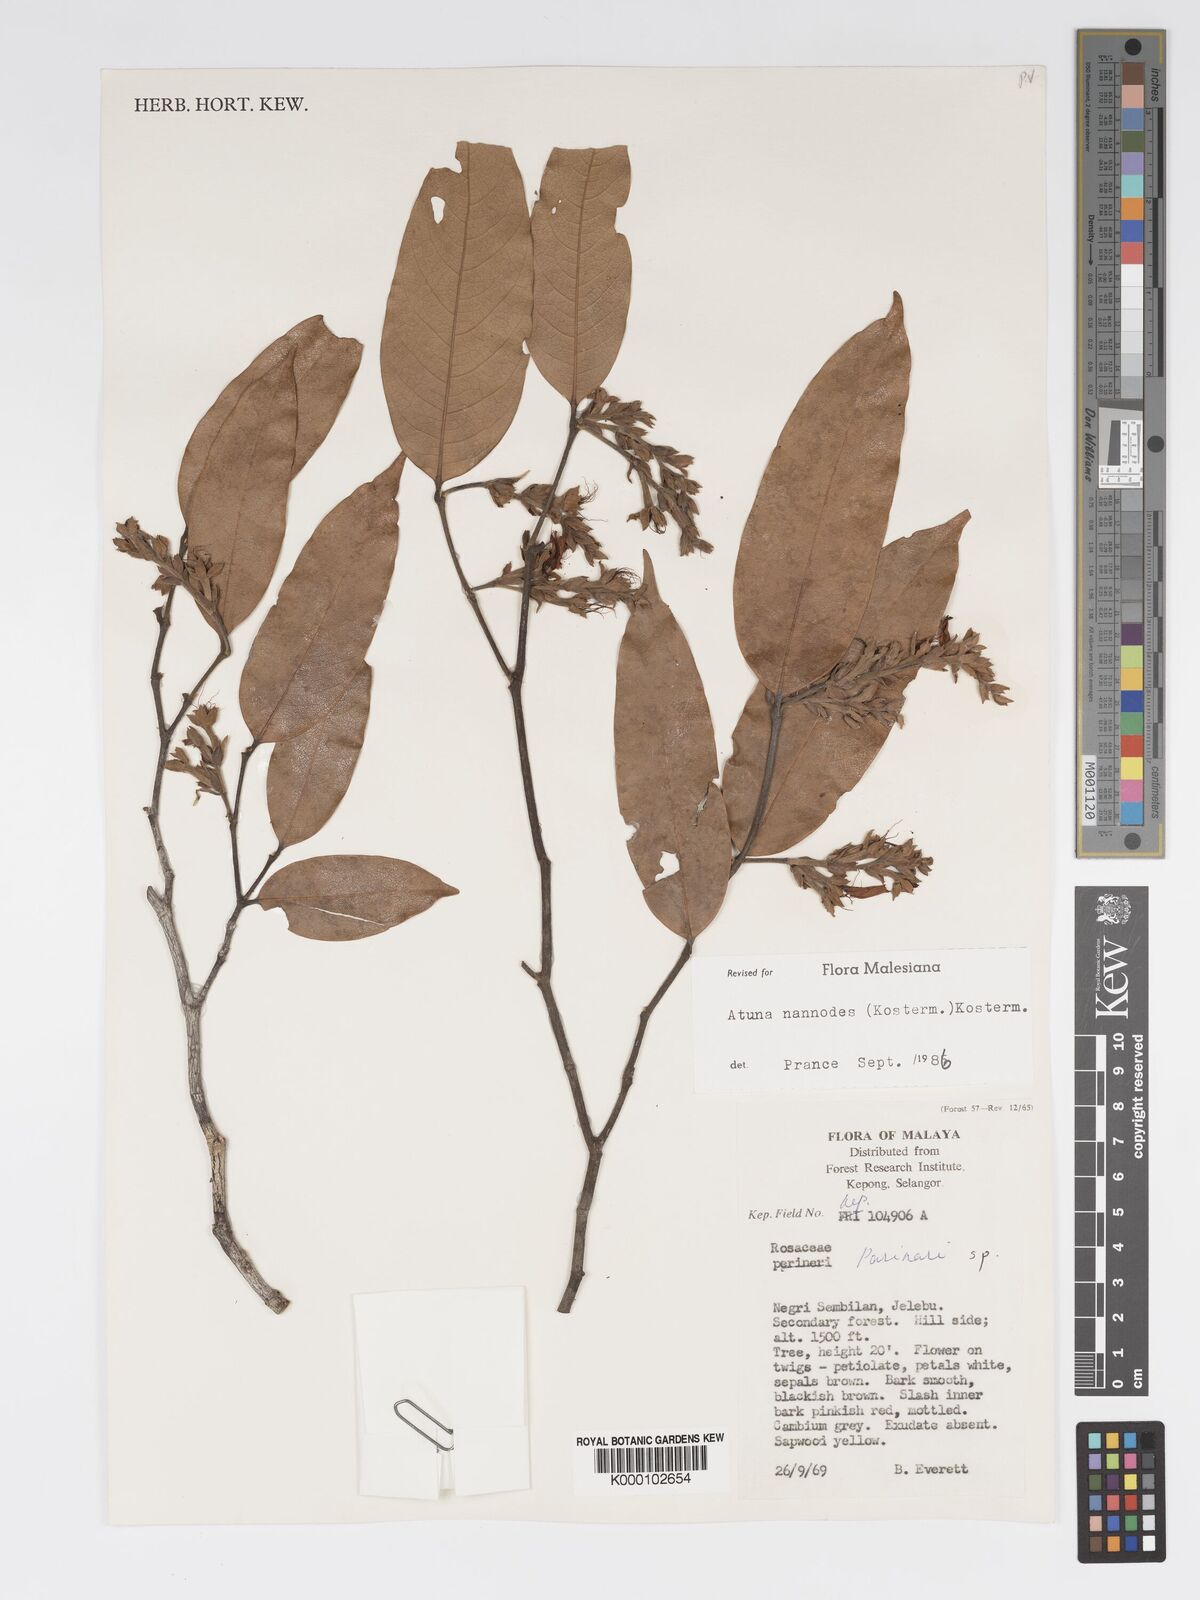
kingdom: Plantae
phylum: Tracheophyta
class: Magnoliopsida
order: Malpighiales
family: Chrysobalanaceae
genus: Atuna
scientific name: Atuna nannodes
